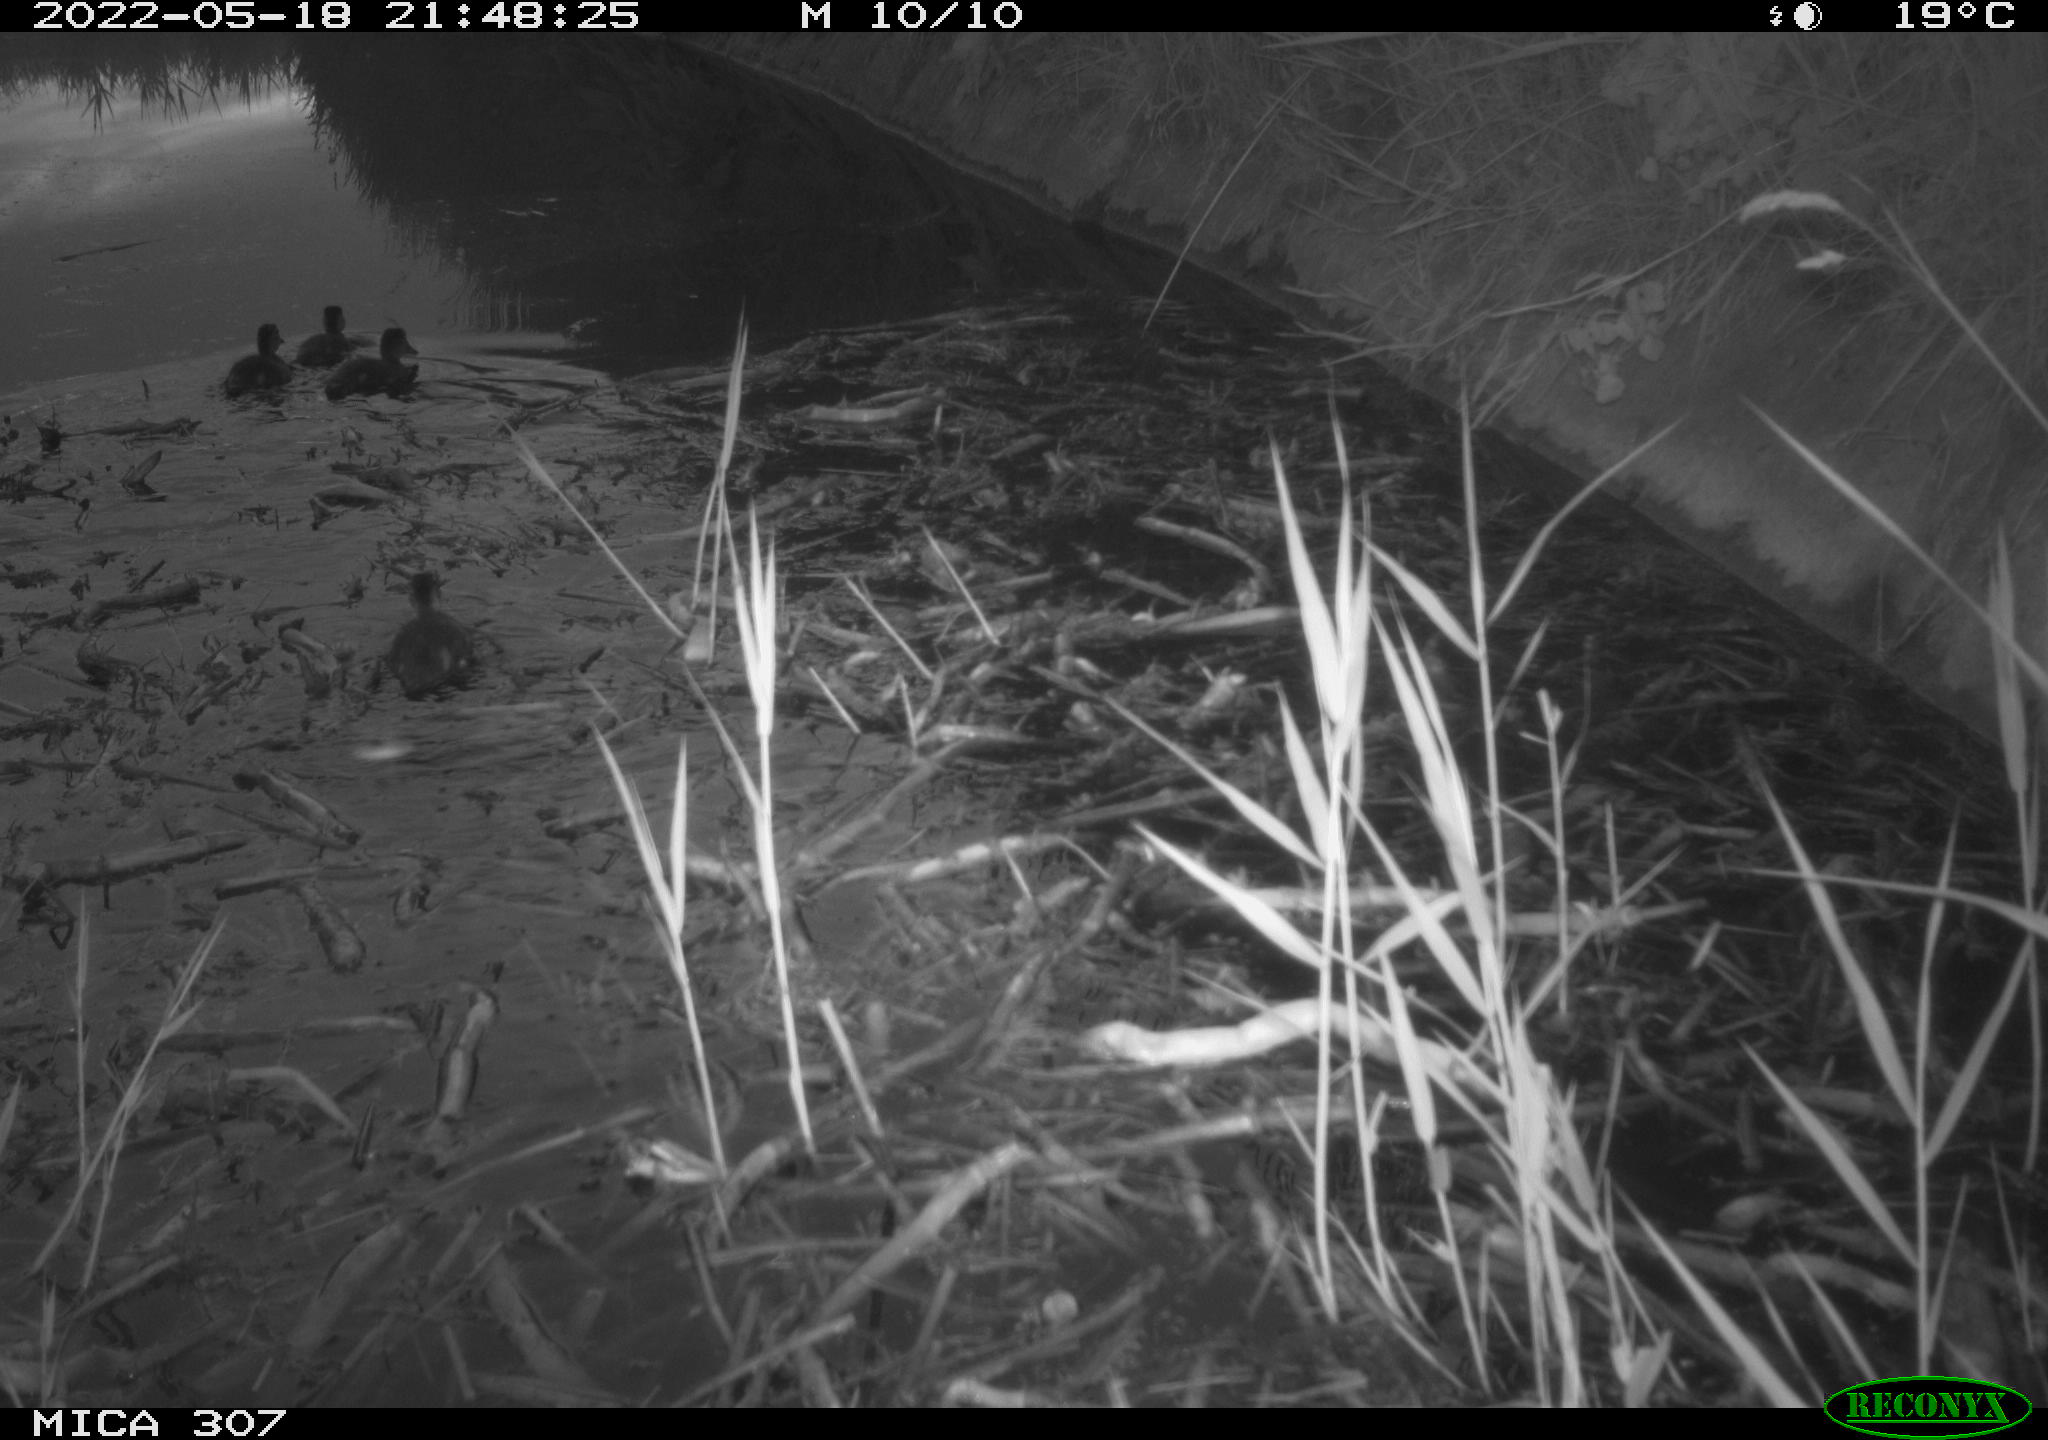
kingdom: Animalia
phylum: Chordata
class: Aves
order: Anseriformes
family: Anatidae
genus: Anas
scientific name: Anas platyrhynchos
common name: Mallard
